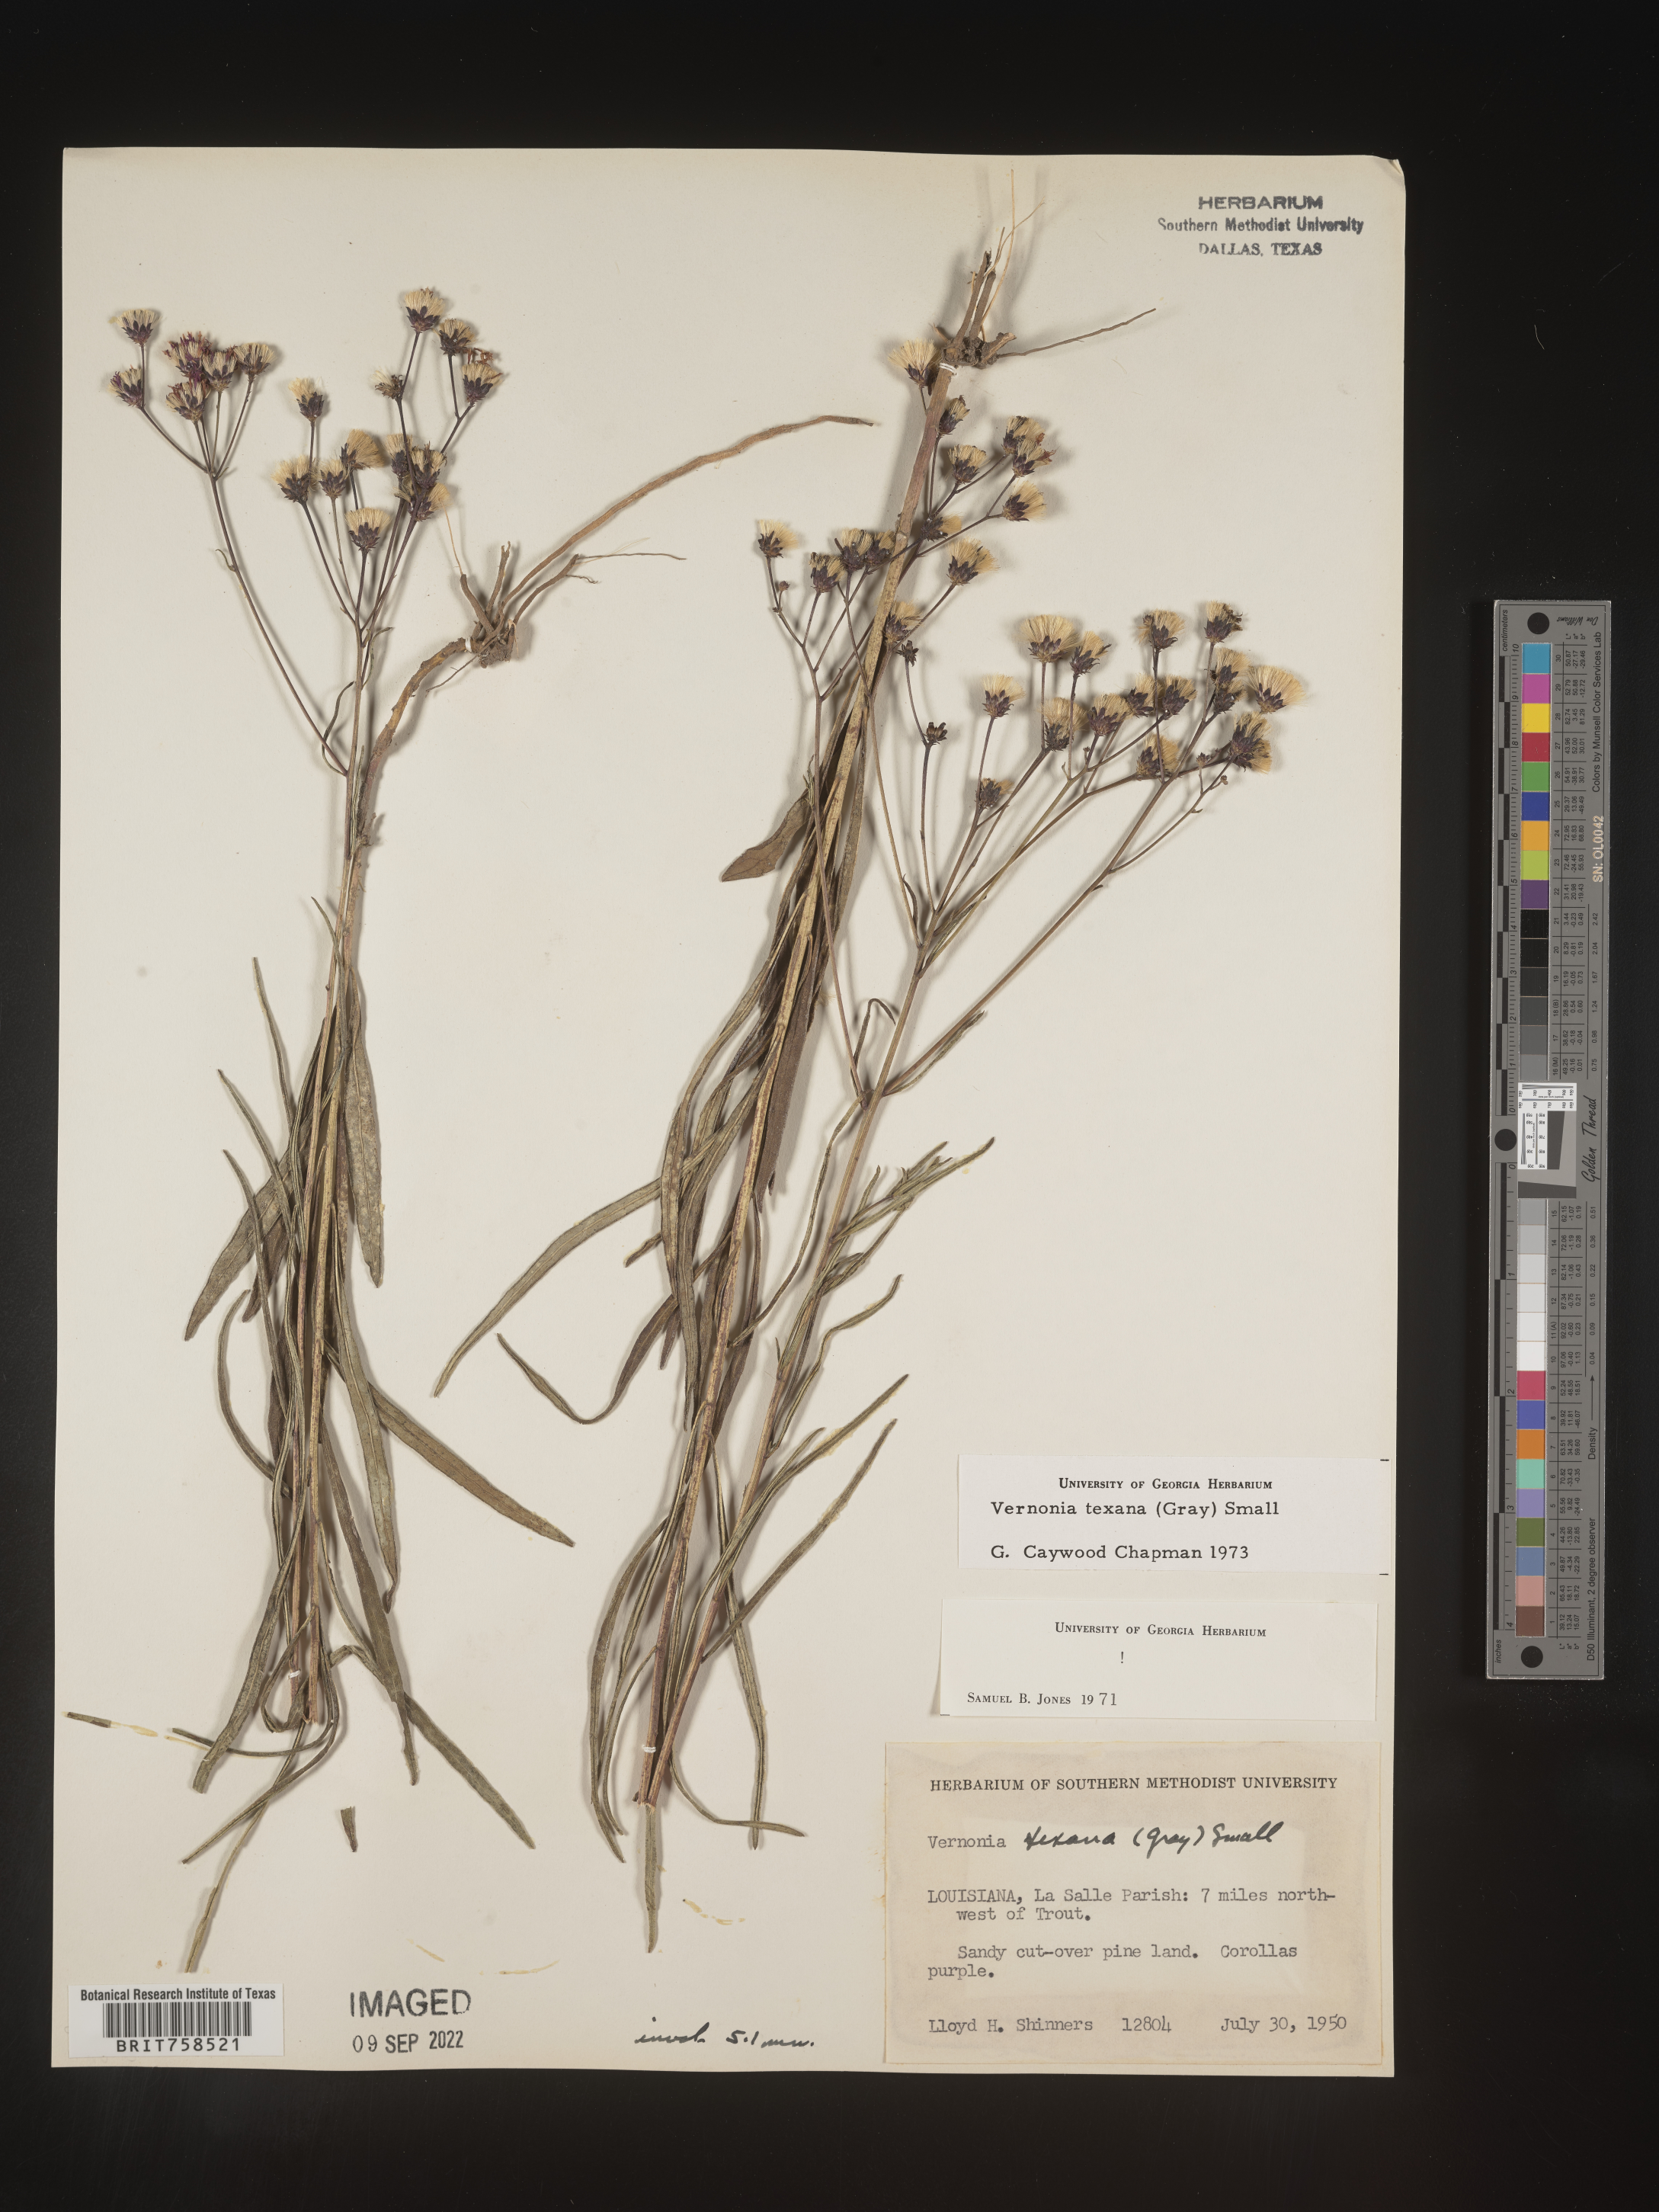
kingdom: Plantae
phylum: Tracheophyta
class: Magnoliopsida
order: Asterales
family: Asteraceae
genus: Vernonia
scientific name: Vernonia texana
